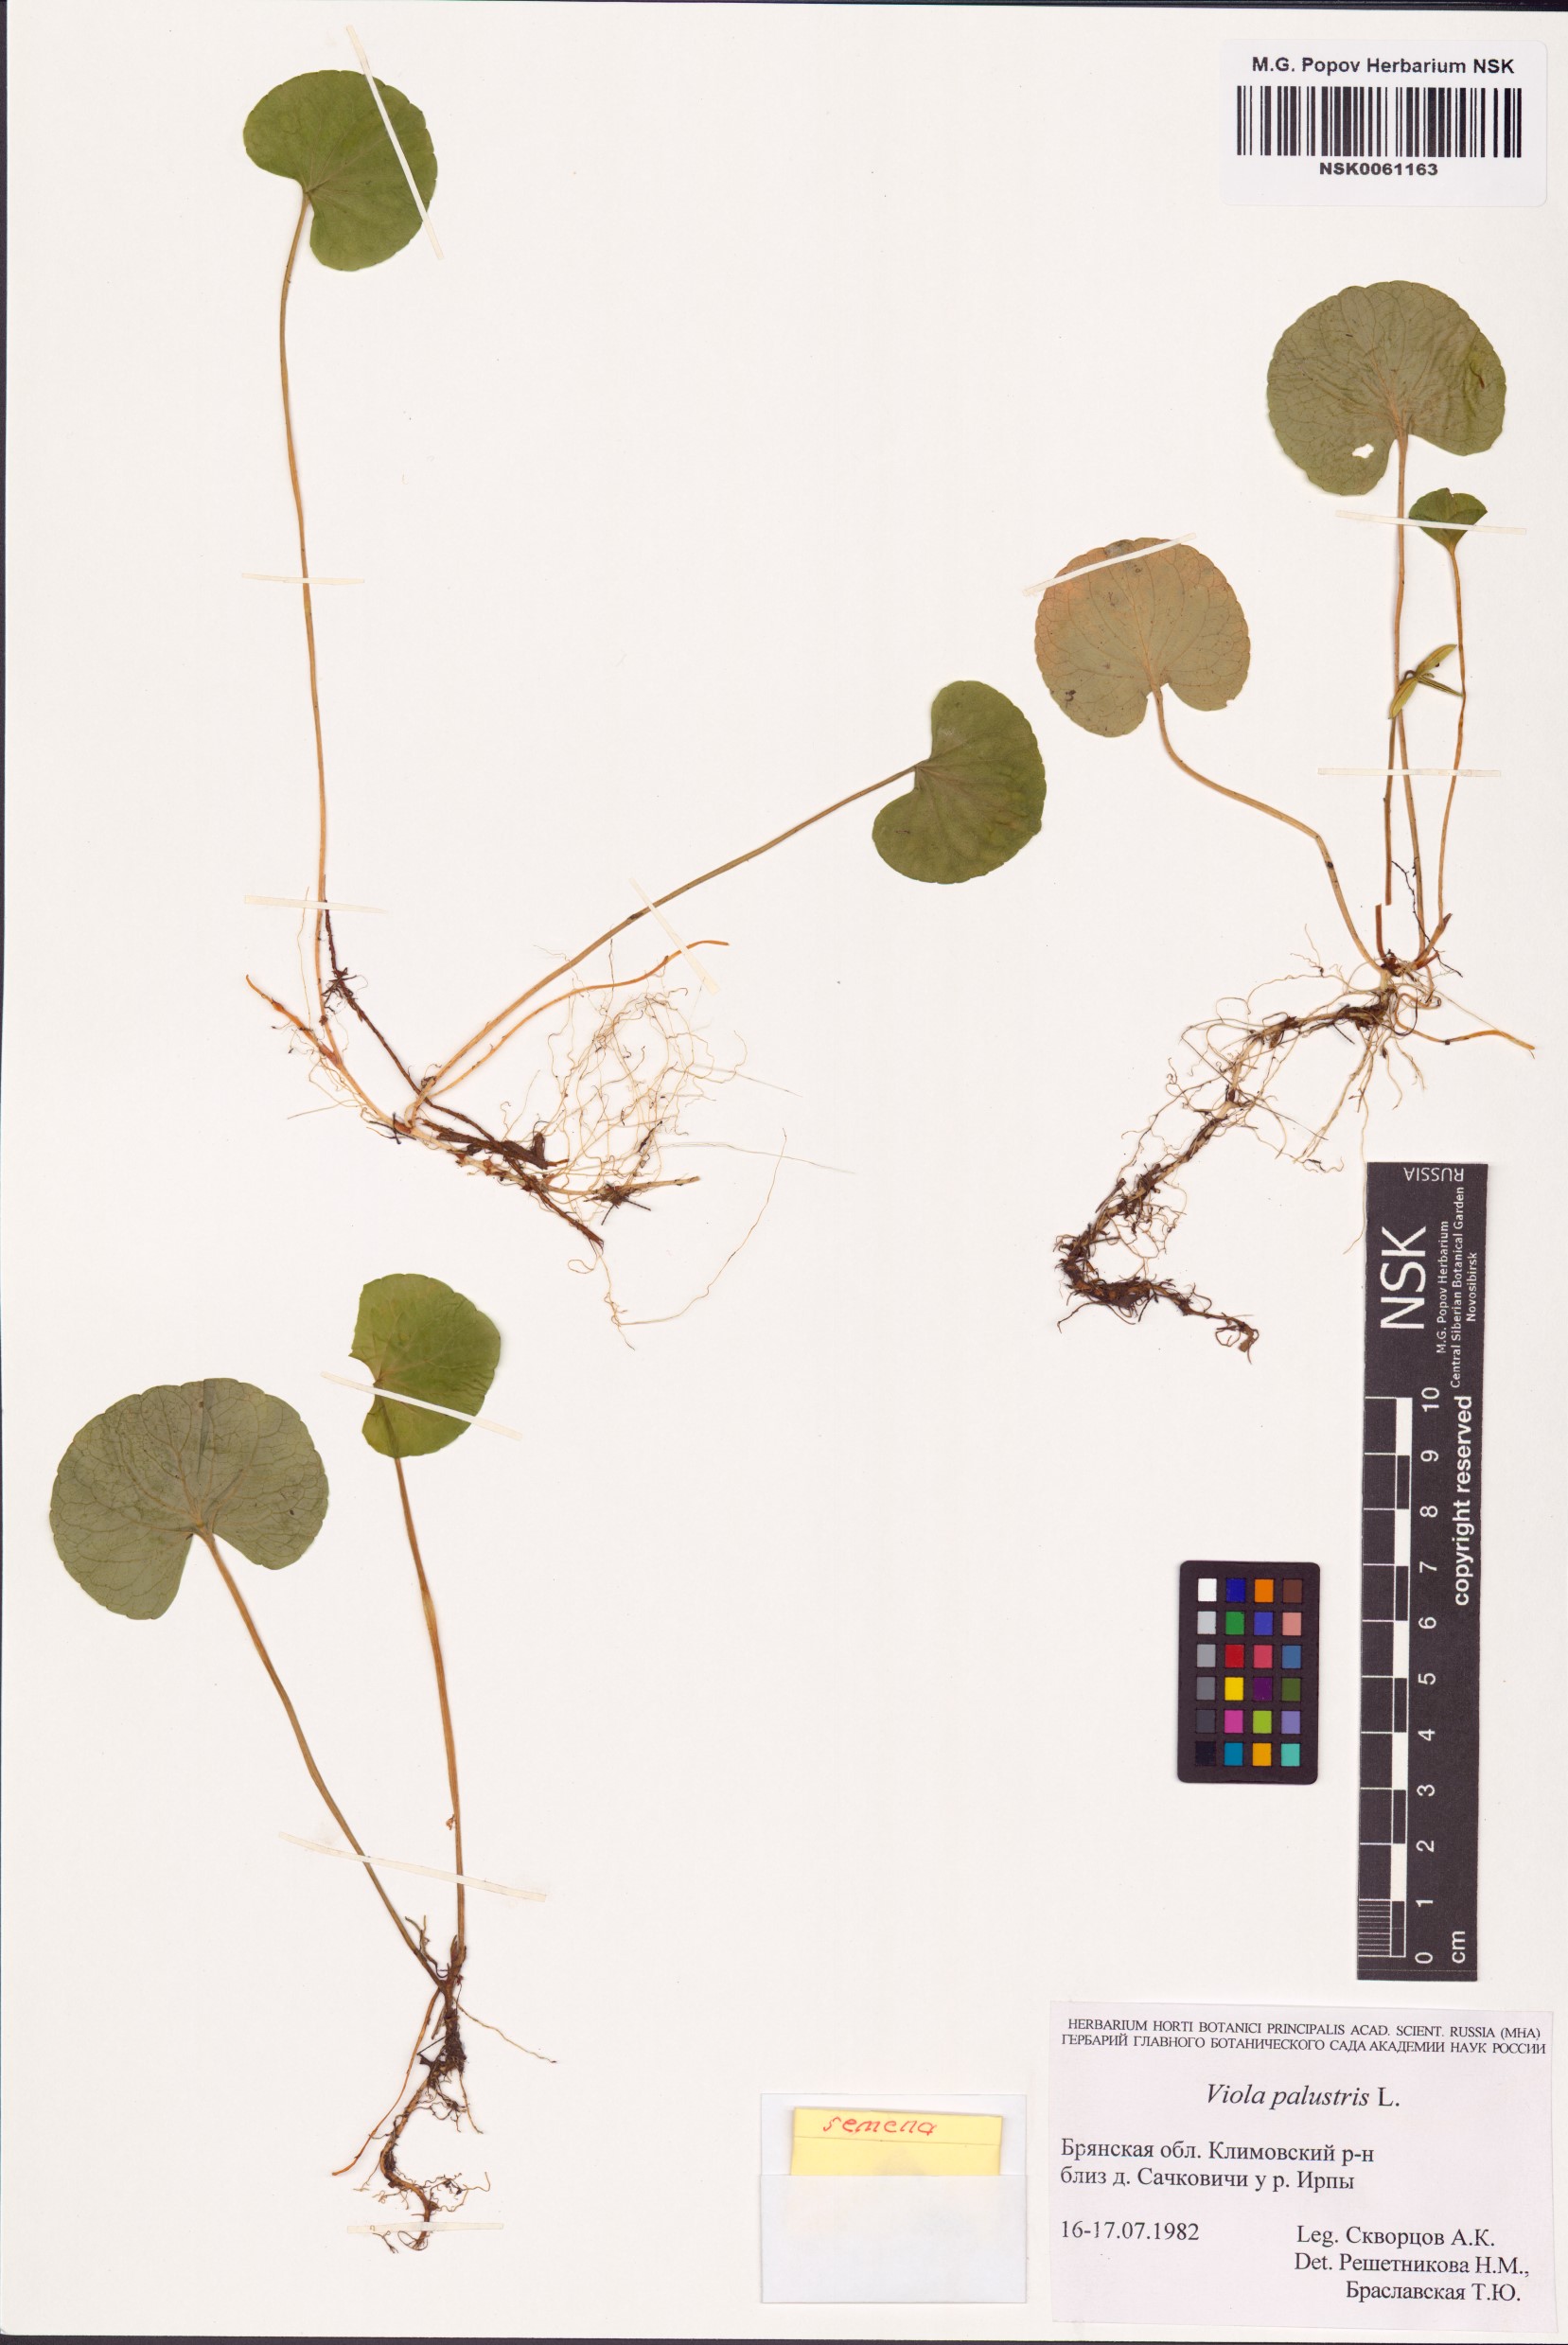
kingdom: Plantae
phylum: Tracheophyta
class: Magnoliopsida
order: Malpighiales
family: Violaceae
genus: Viola
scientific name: Viola palustris
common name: Marsh violet
